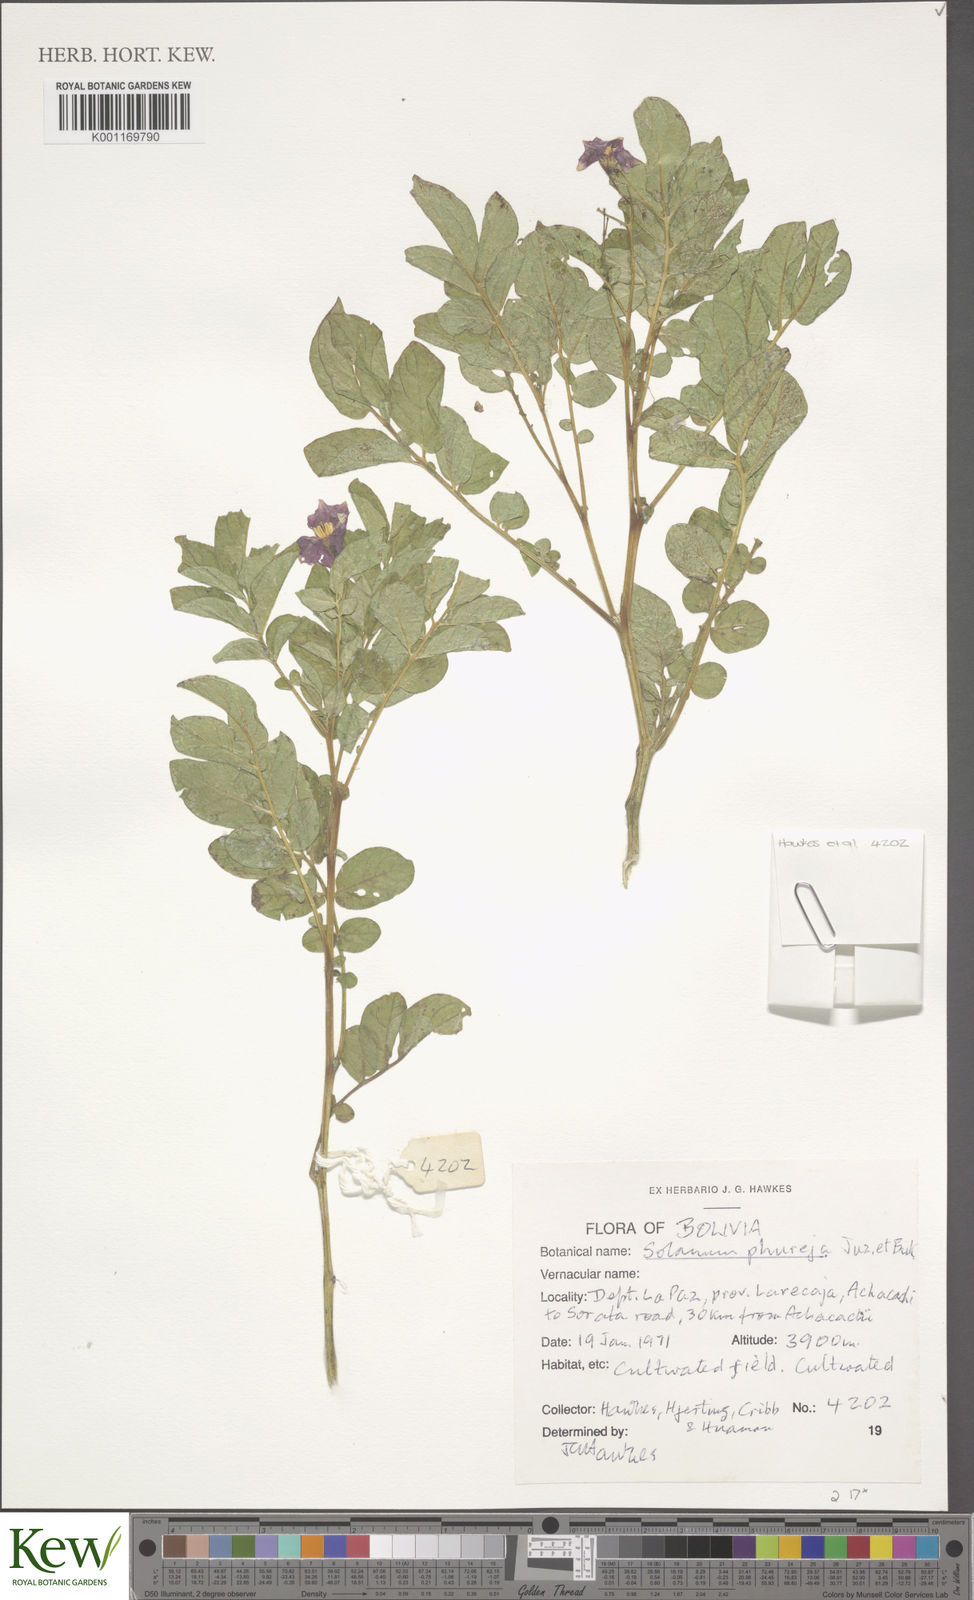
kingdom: Plantae
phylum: Tracheophyta
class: Magnoliopsida
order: Solanales
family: Solanaceae
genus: Solanum
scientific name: Solanum tuberosum
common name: Potato
